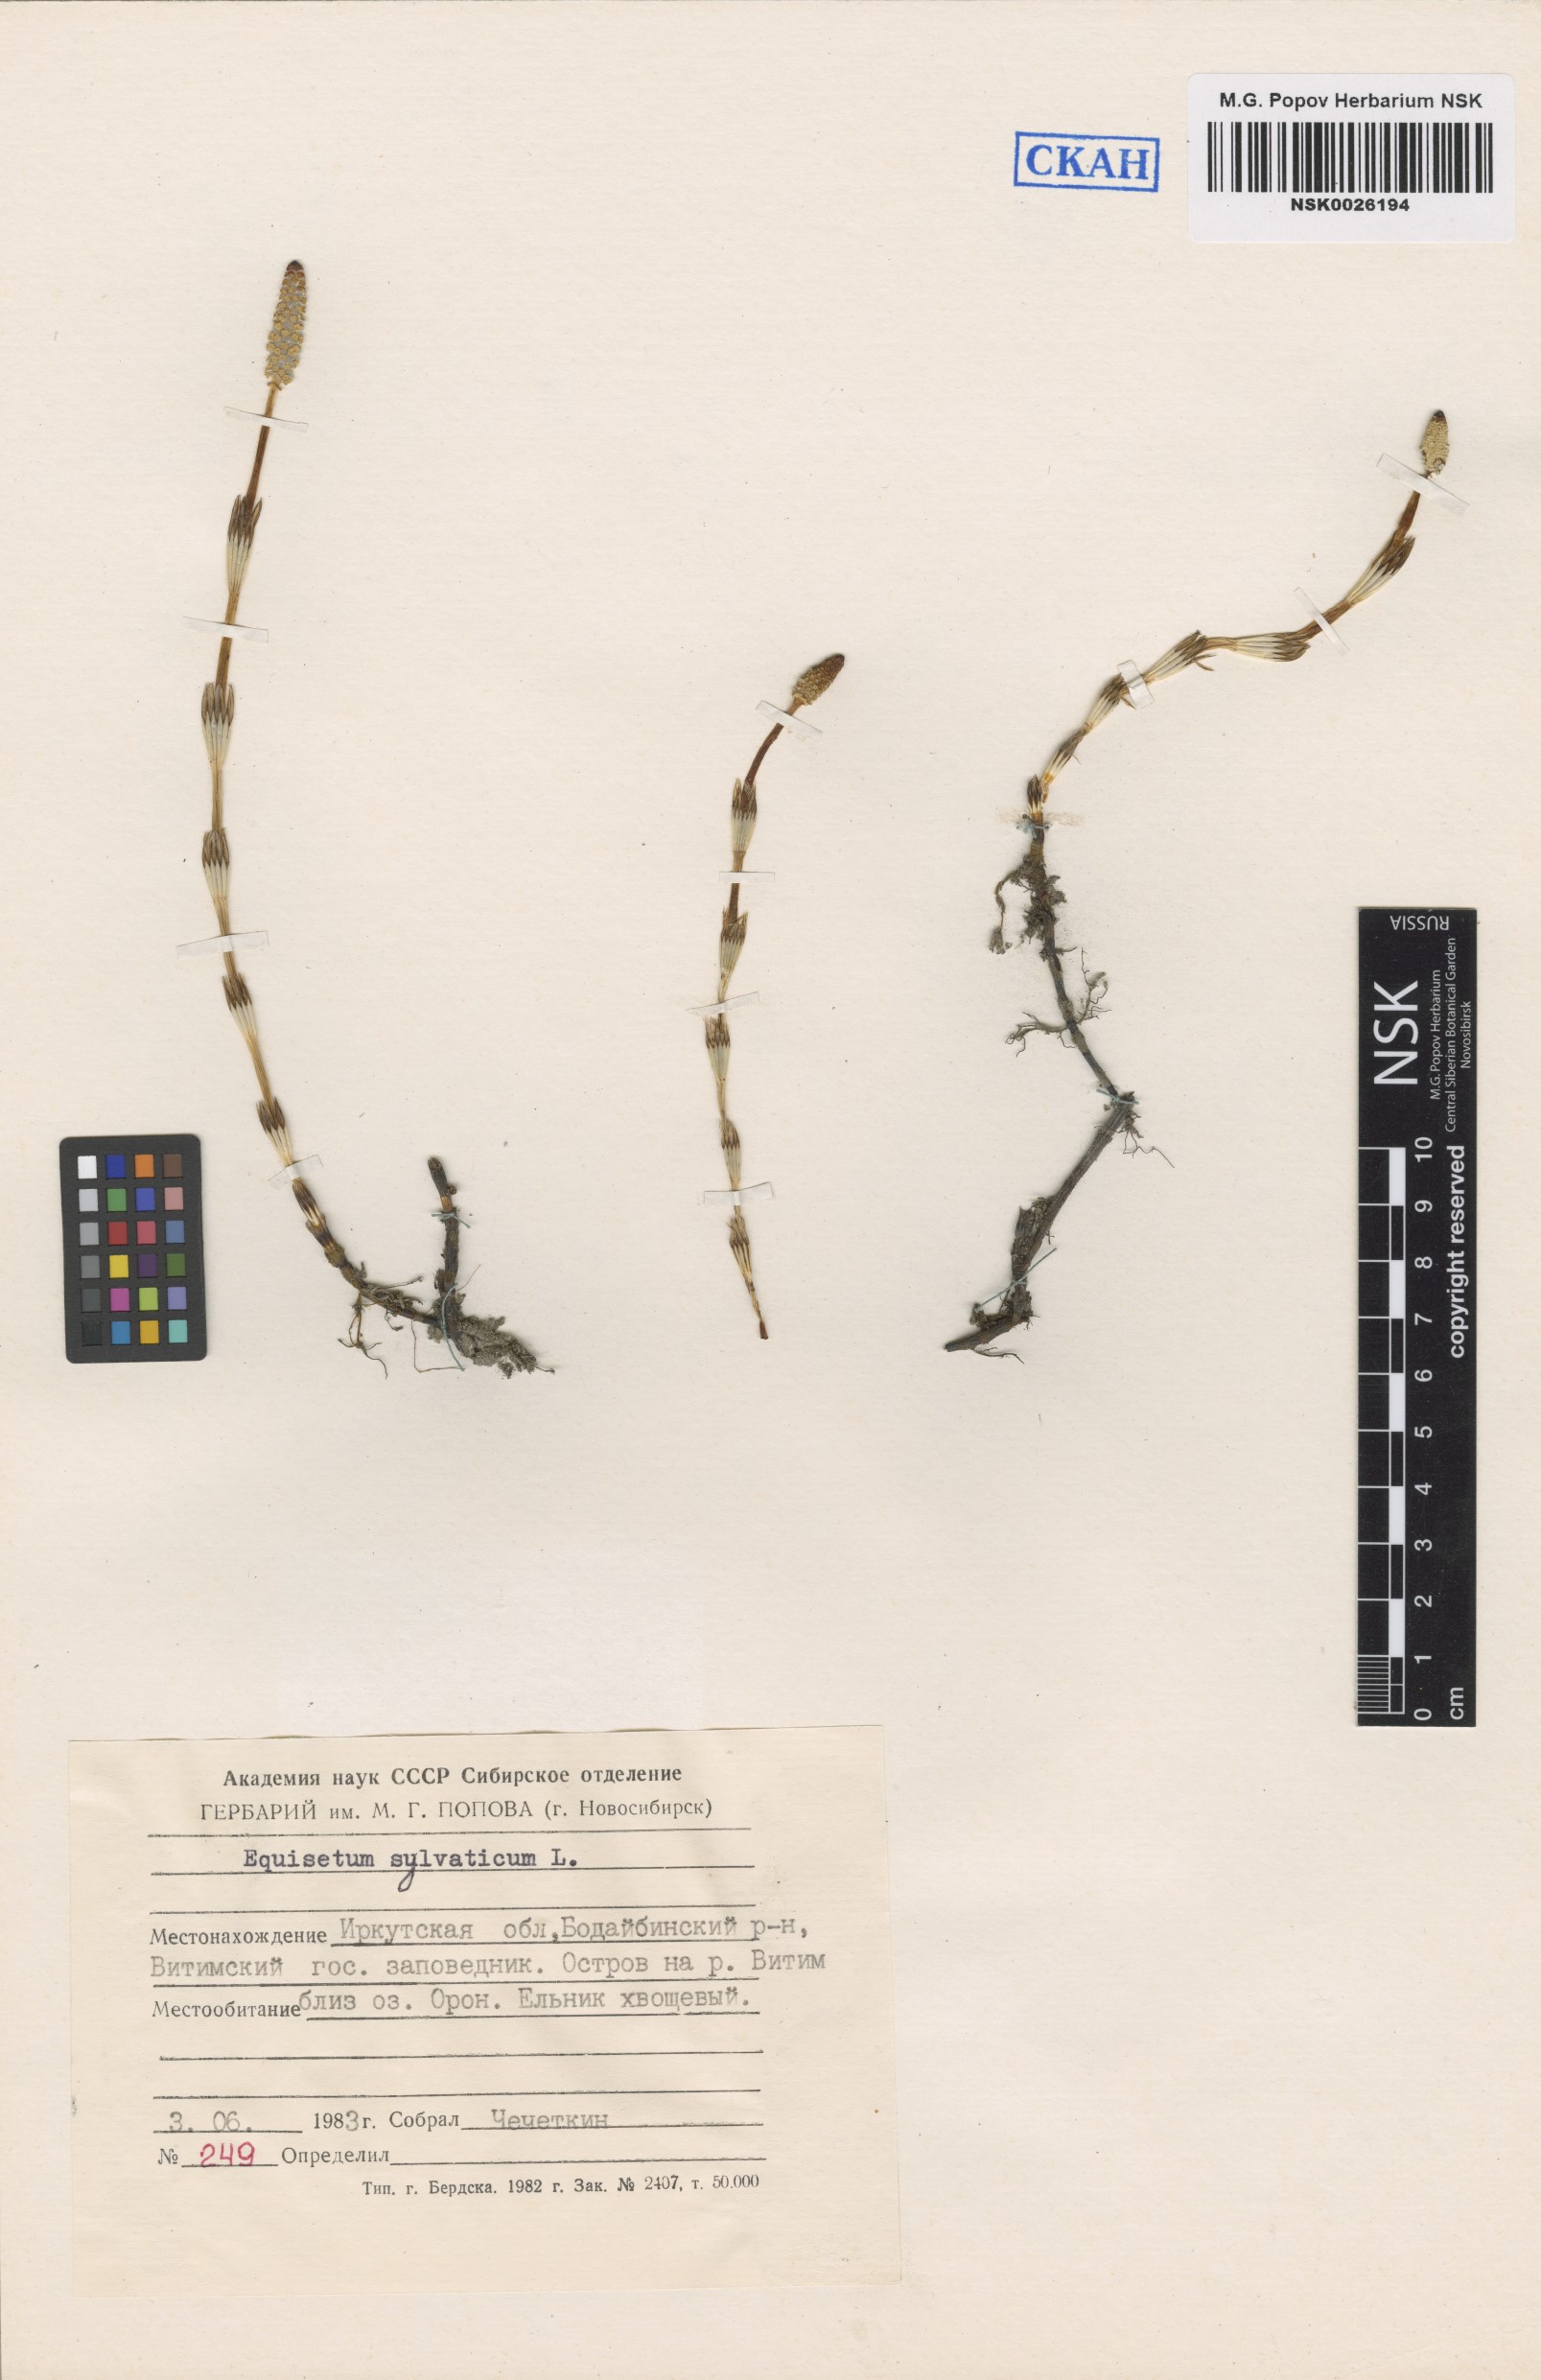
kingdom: Plantae
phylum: Tracheophyta
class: Polypodiopsida
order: Equisetales
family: Equisetaceae
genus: Equisetum
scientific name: Equisetum sylvaticum
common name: Wood horsetail
